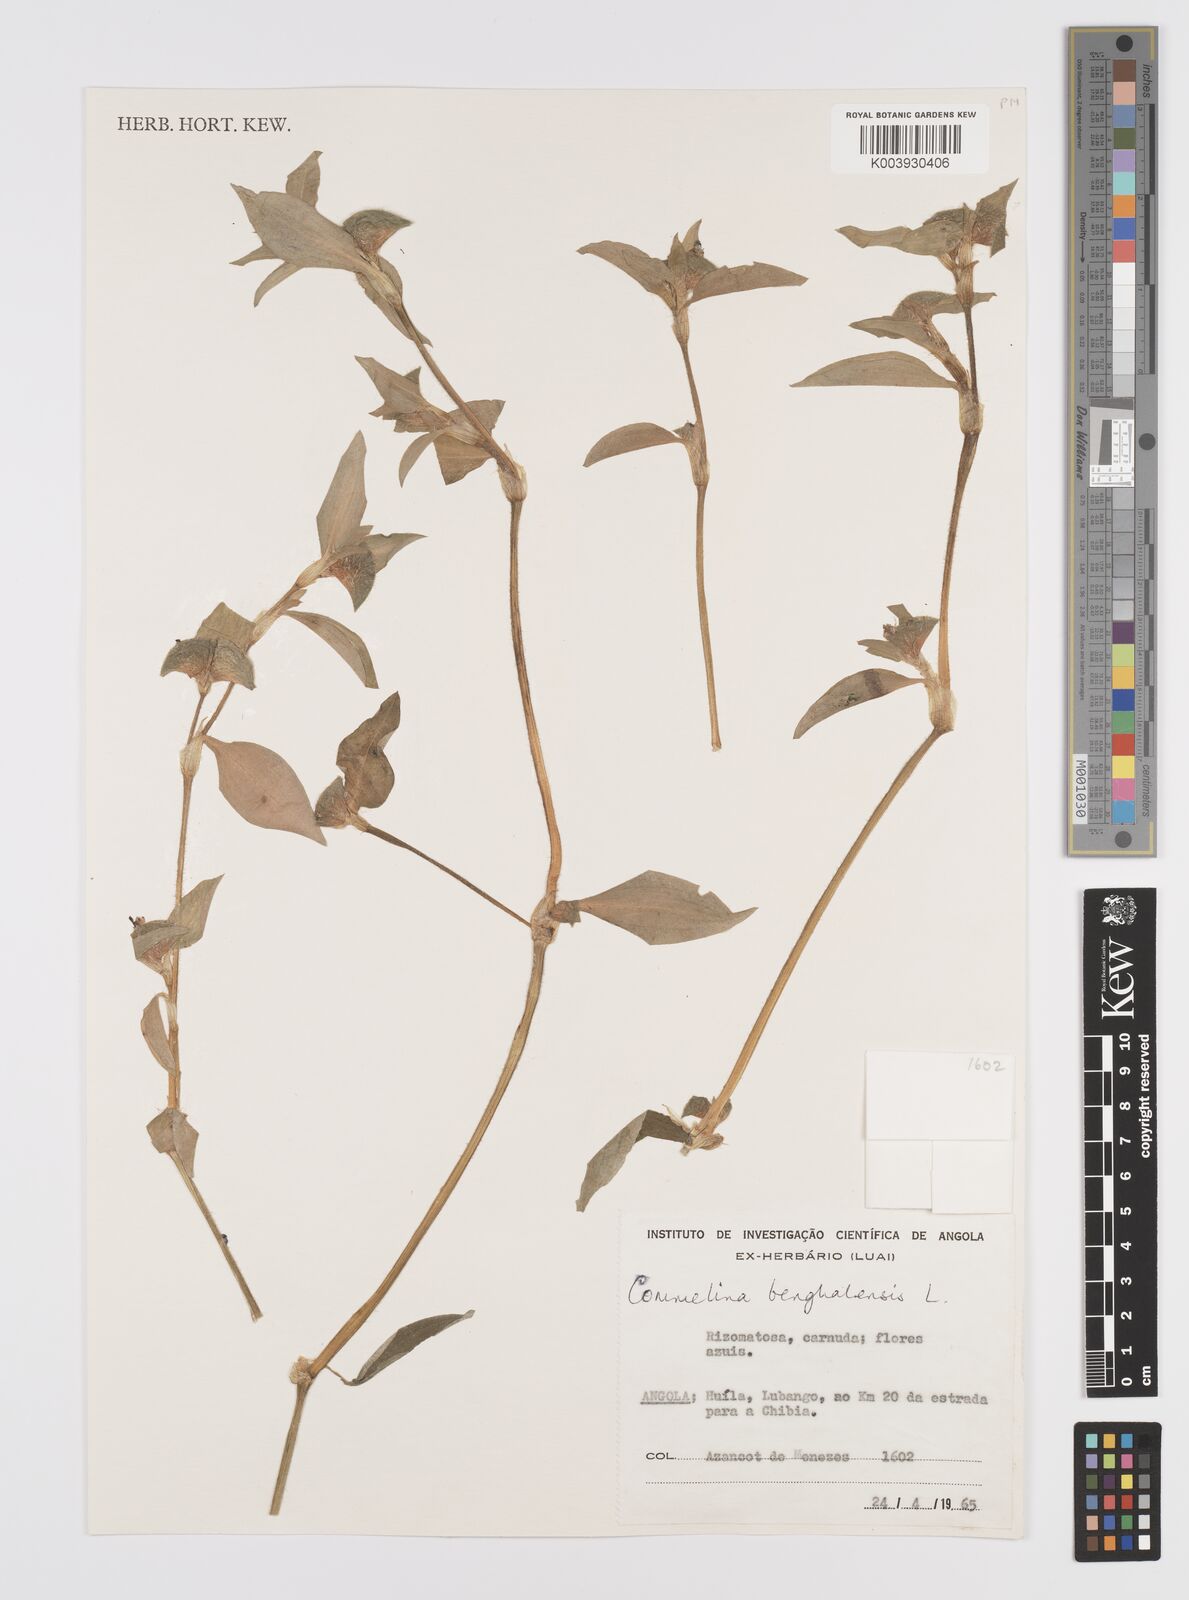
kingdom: Plantae
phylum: Tracheophyta
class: Liliopsida
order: Commelinales
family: Commelinaceae
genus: Commelina
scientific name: Commelina benghalensis
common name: Jio
